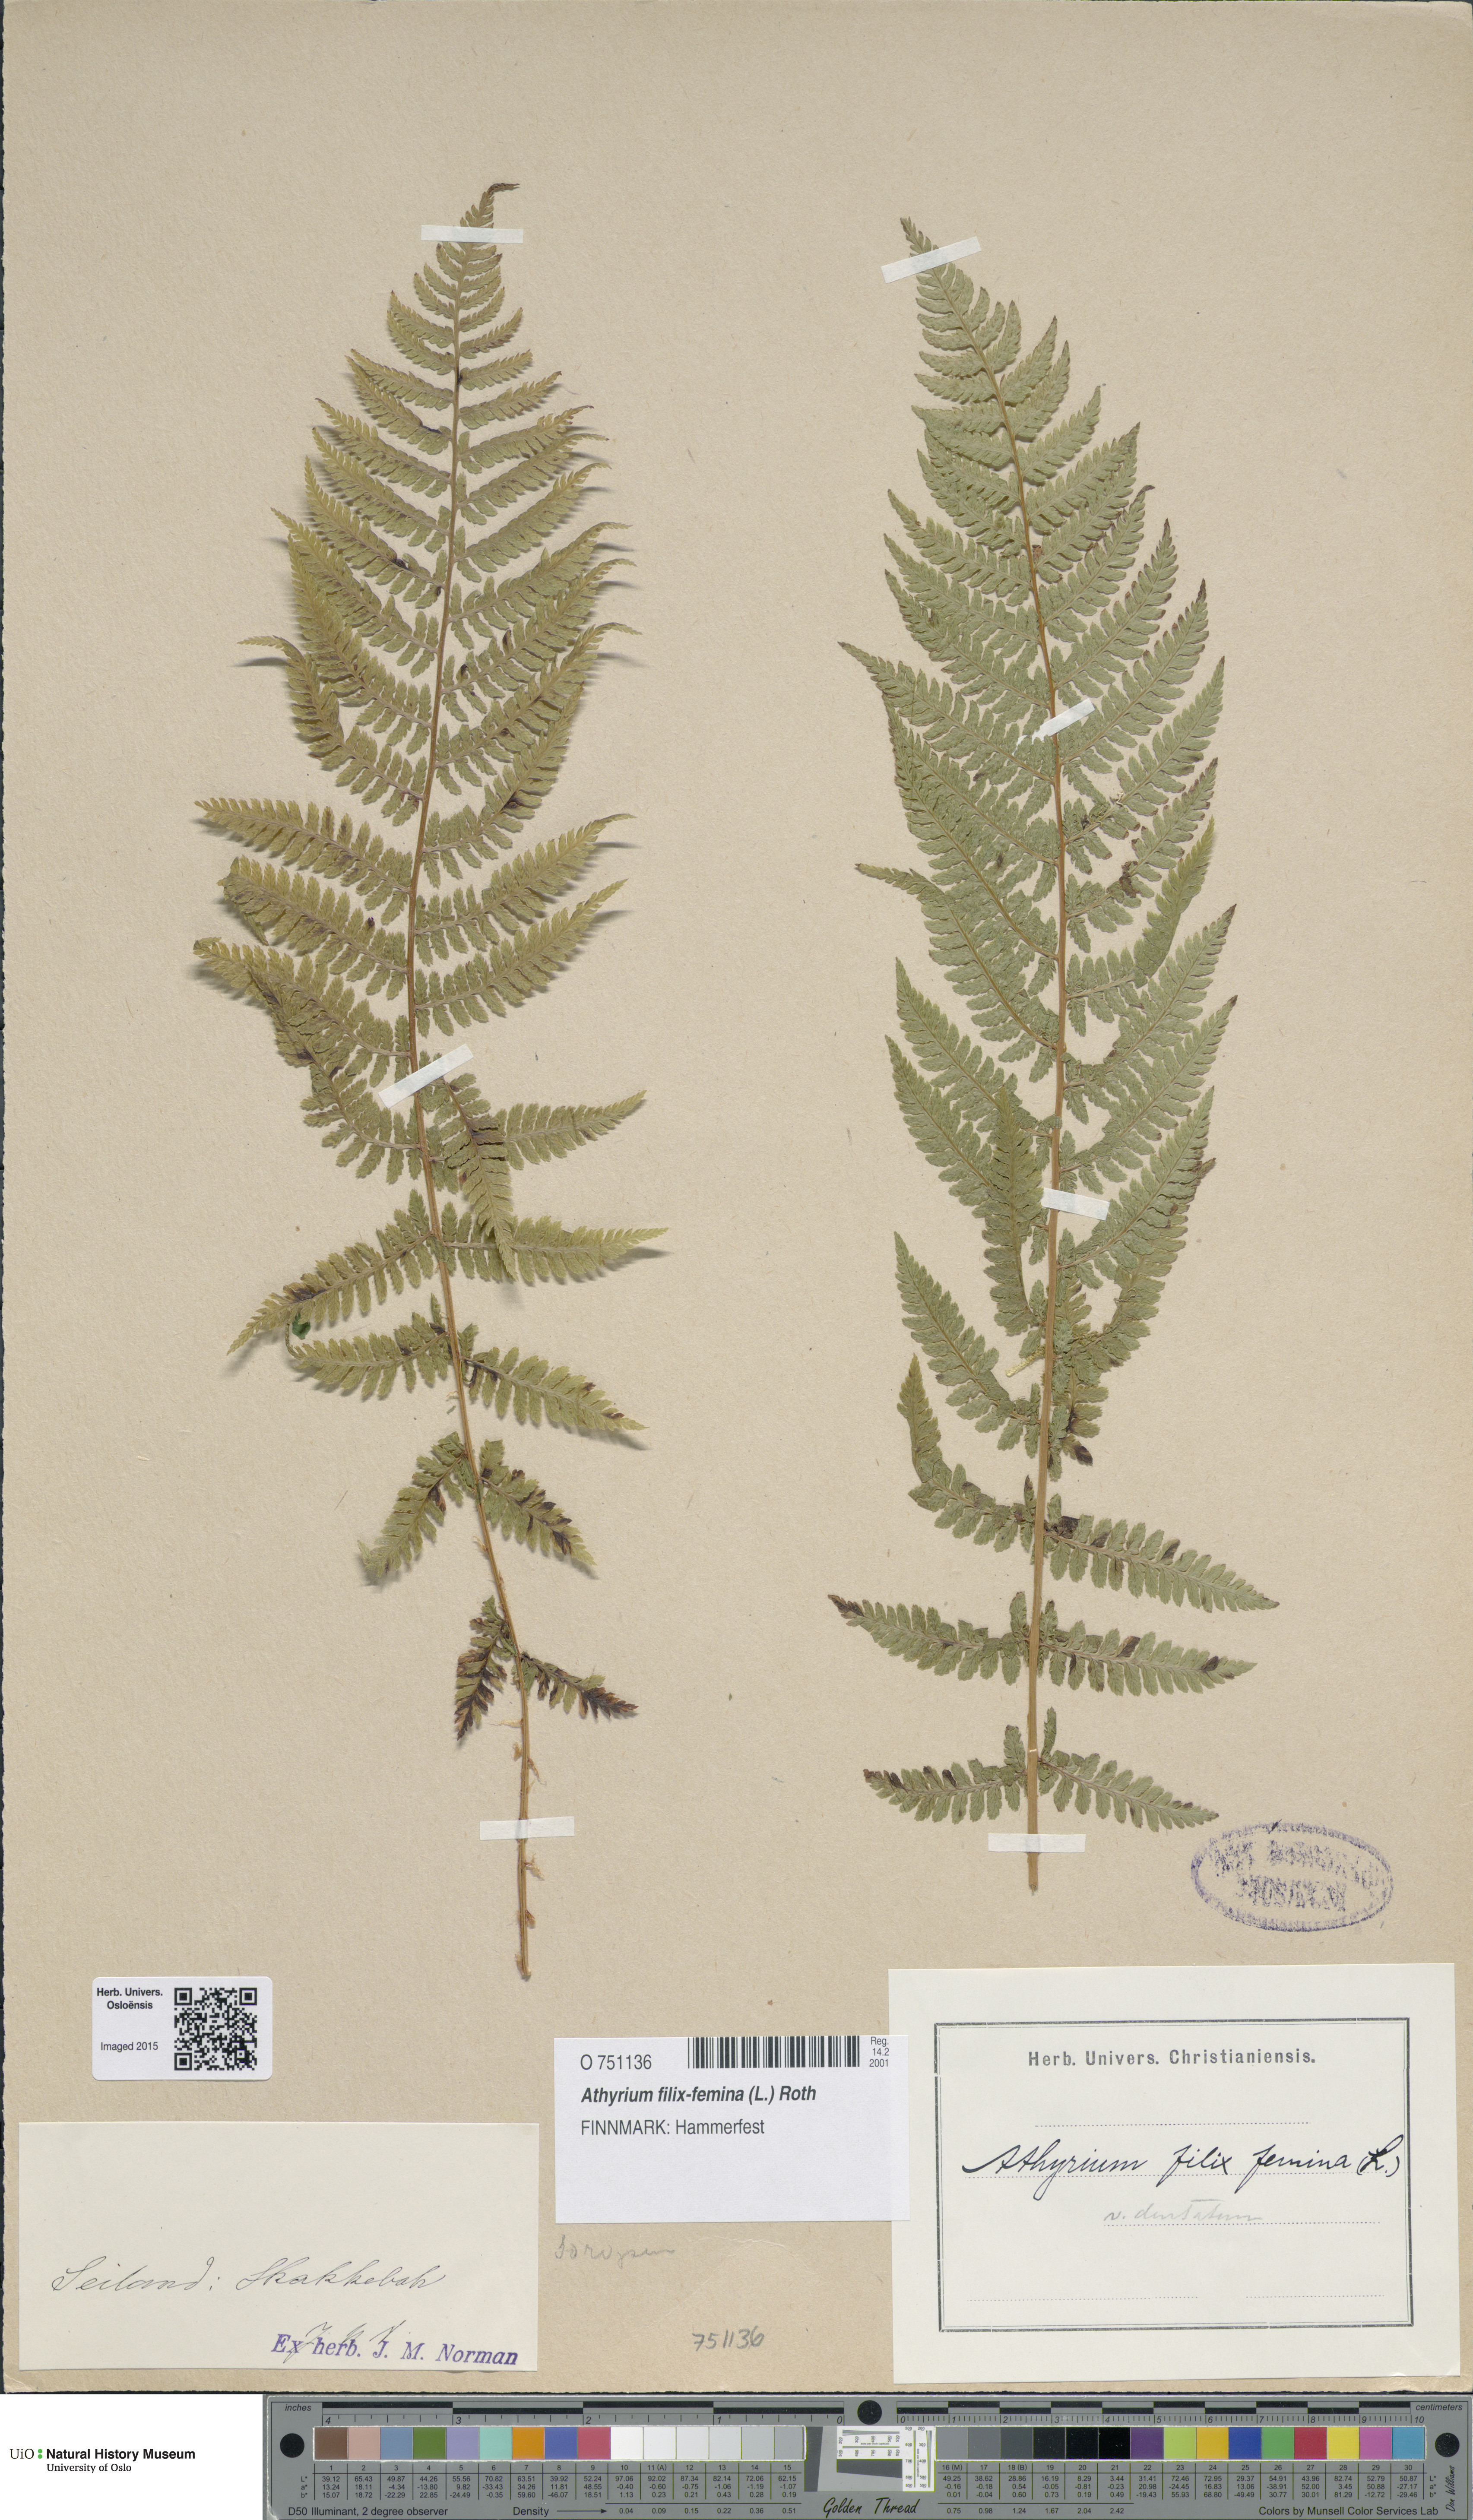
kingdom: Plantae
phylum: Tracheophyta
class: Polypodiopsida
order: Polypodiales
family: Athyriaceae
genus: Athyrium
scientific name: Athyrium filix-femina
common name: Lady fern
